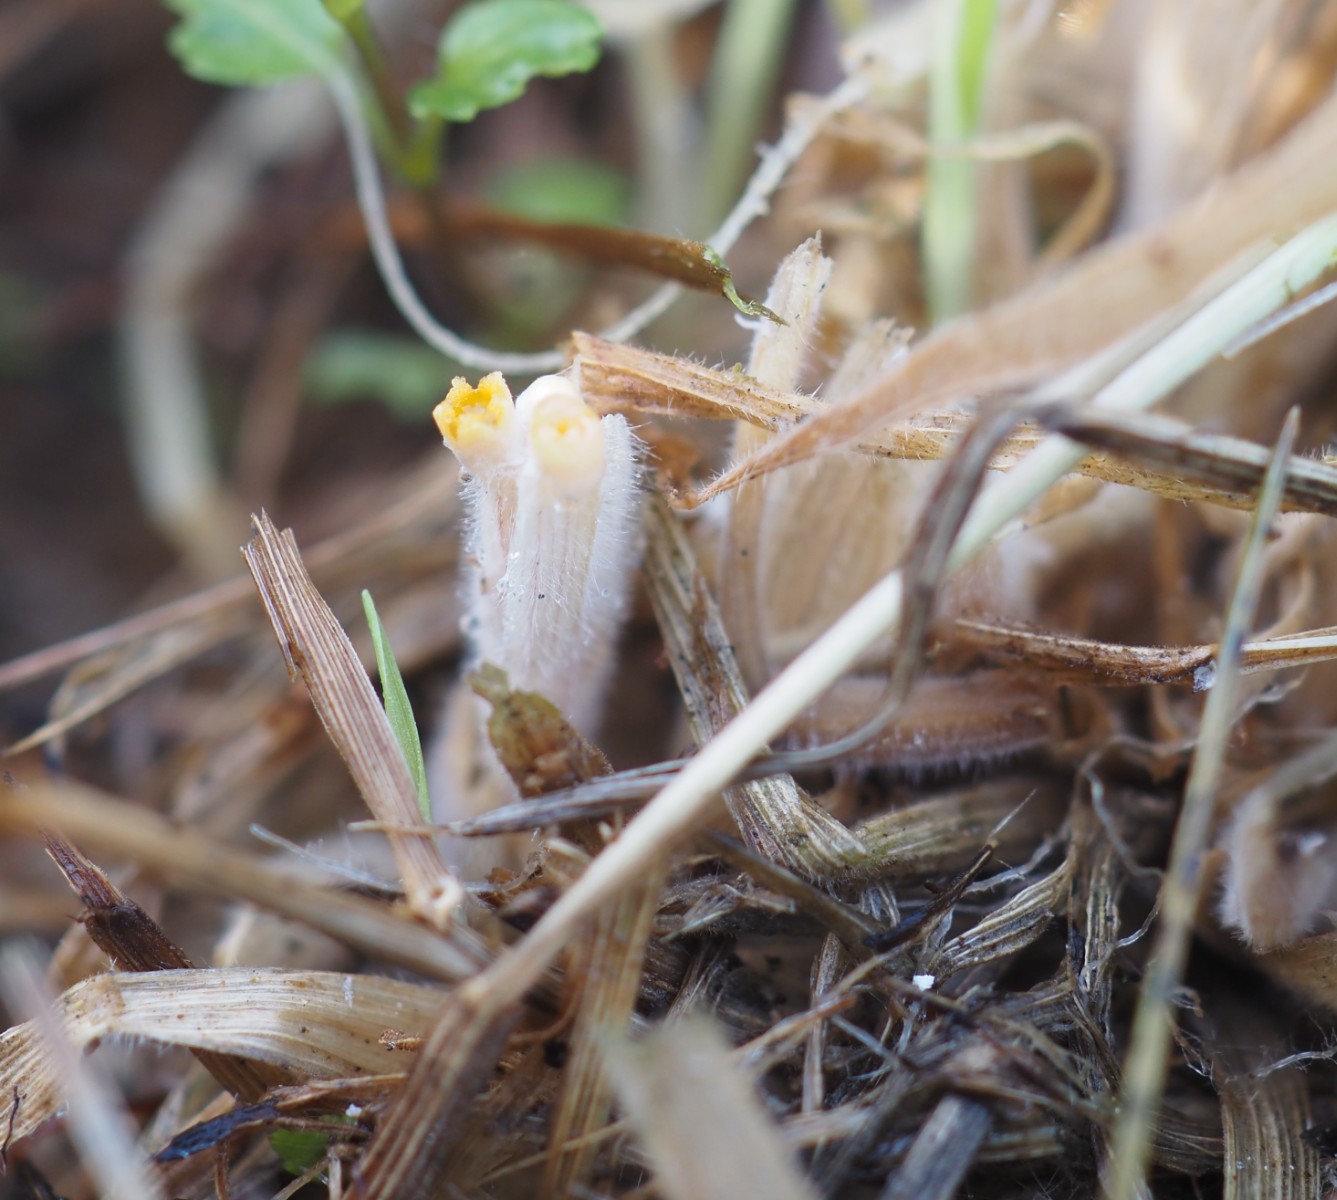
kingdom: Fungi
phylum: Basidiomycota
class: Agaricomycetes
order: Geastrales
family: Geastraceae
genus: Sphaerobolus
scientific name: Sphaerobolus stellatus
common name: bombekaster
